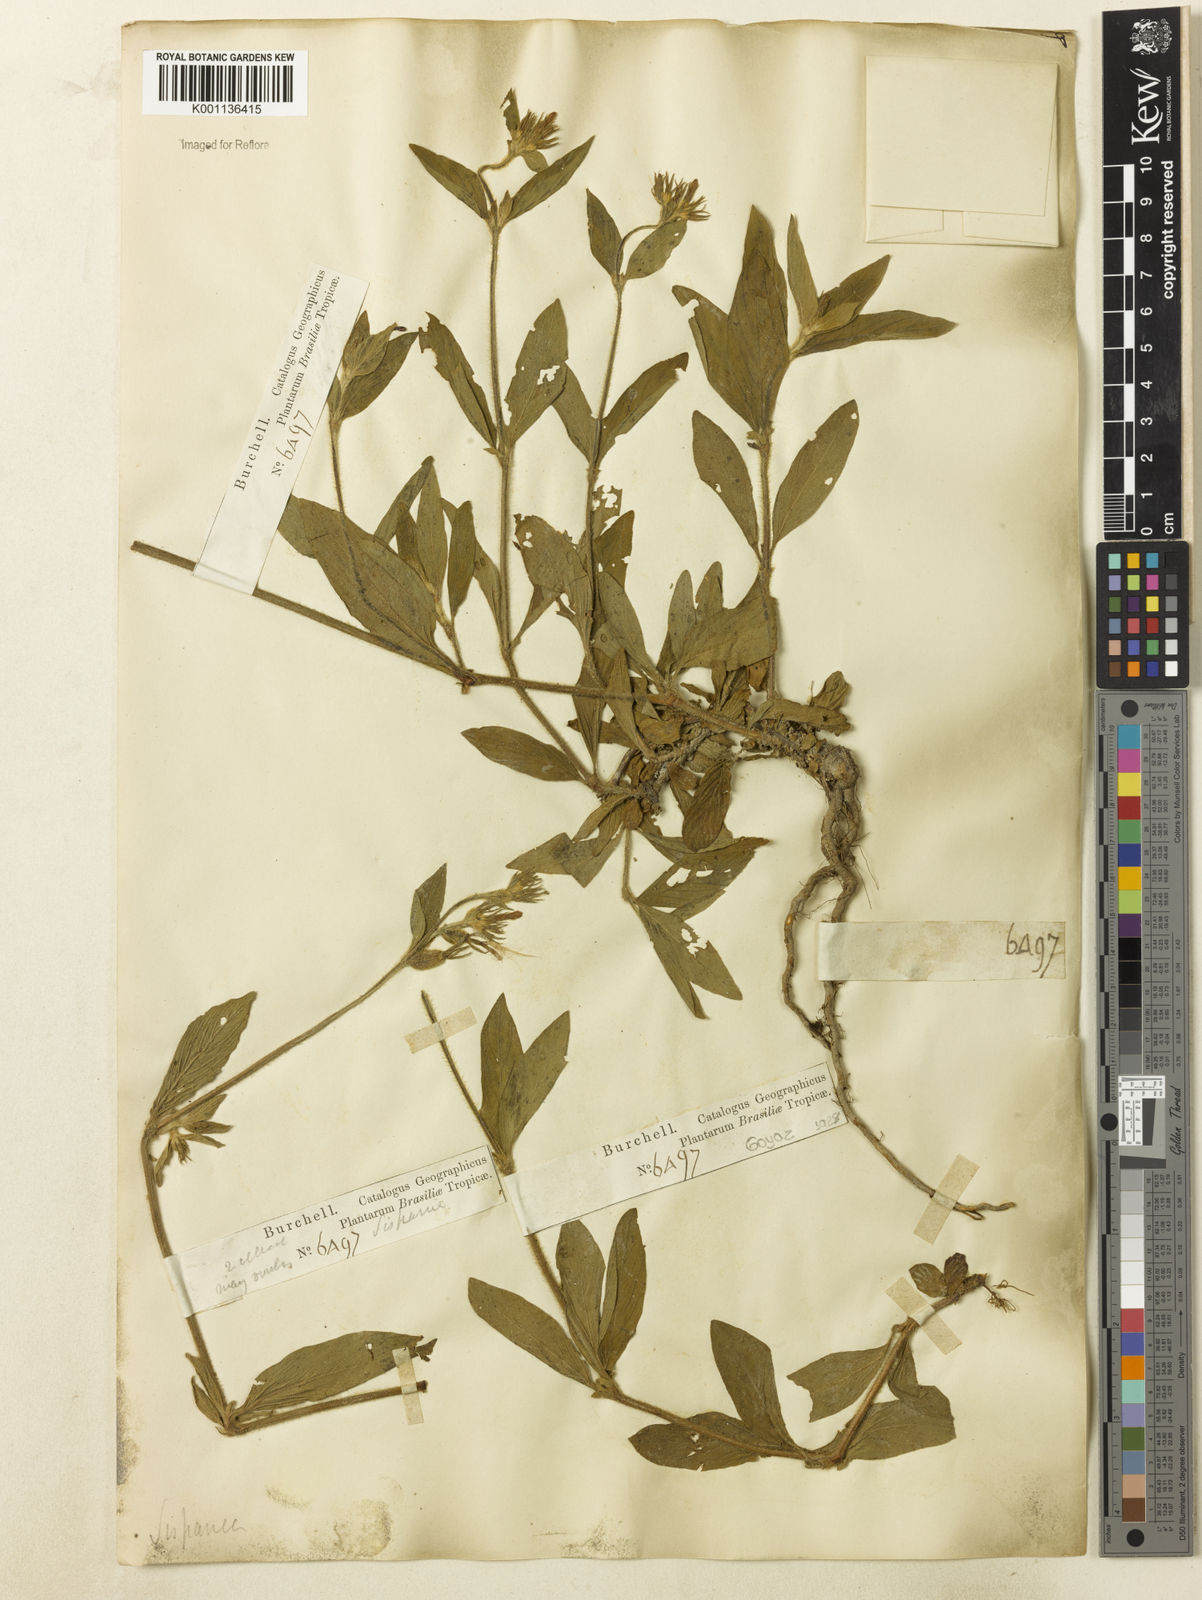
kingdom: Plantae
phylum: Tracheophyta
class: Magnoliopsida
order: Gentianales
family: Rubiaceae
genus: Sipanea
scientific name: Sipanea pratensis
